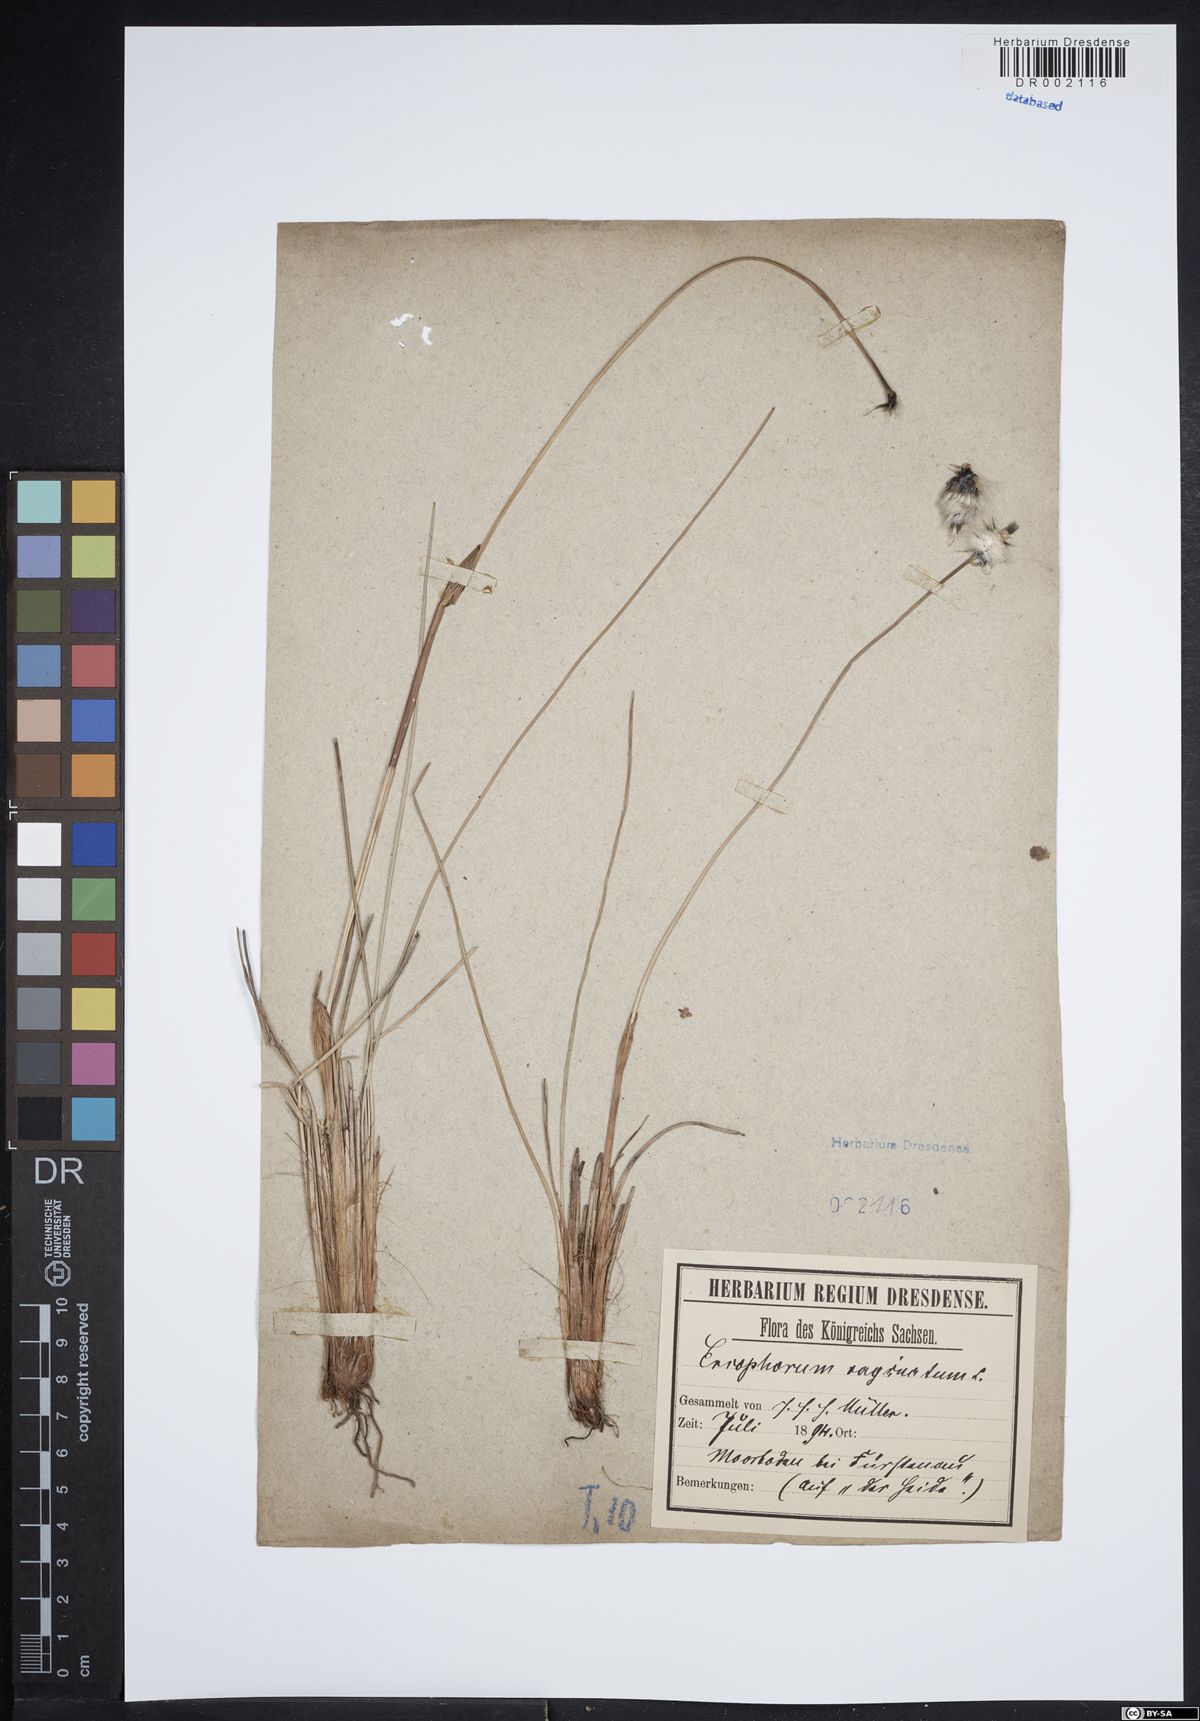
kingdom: Plantae
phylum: Tracheophyta
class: Liliopsida
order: Poales
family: Cyperaceae
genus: Eriophorum
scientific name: Eriophorum vaginatum
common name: Hare's-tail cottongrass
